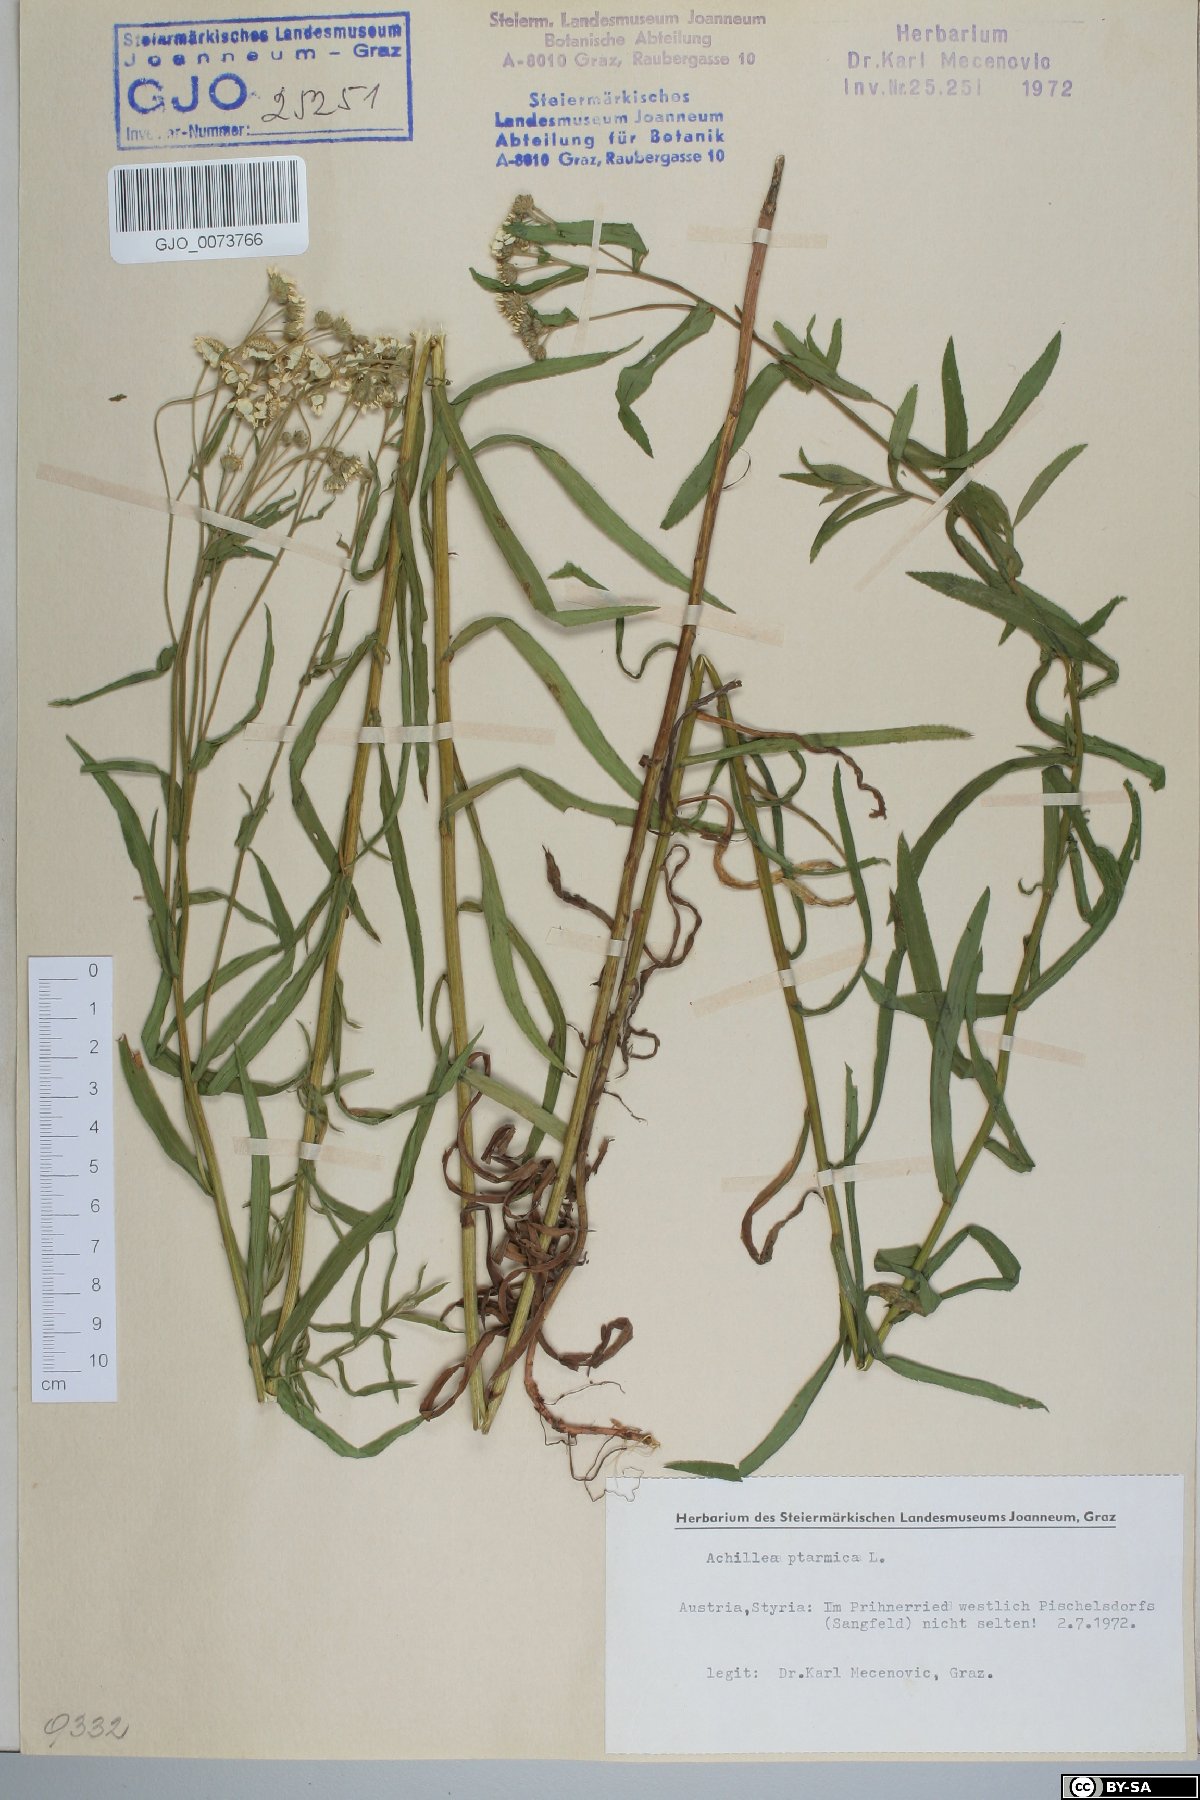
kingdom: Plantae
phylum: Tracheophyta
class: Magnoliopsida
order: Asterales
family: Asteraceae
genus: Achillea
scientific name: Achillea ptarmica
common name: Sneezeweed
